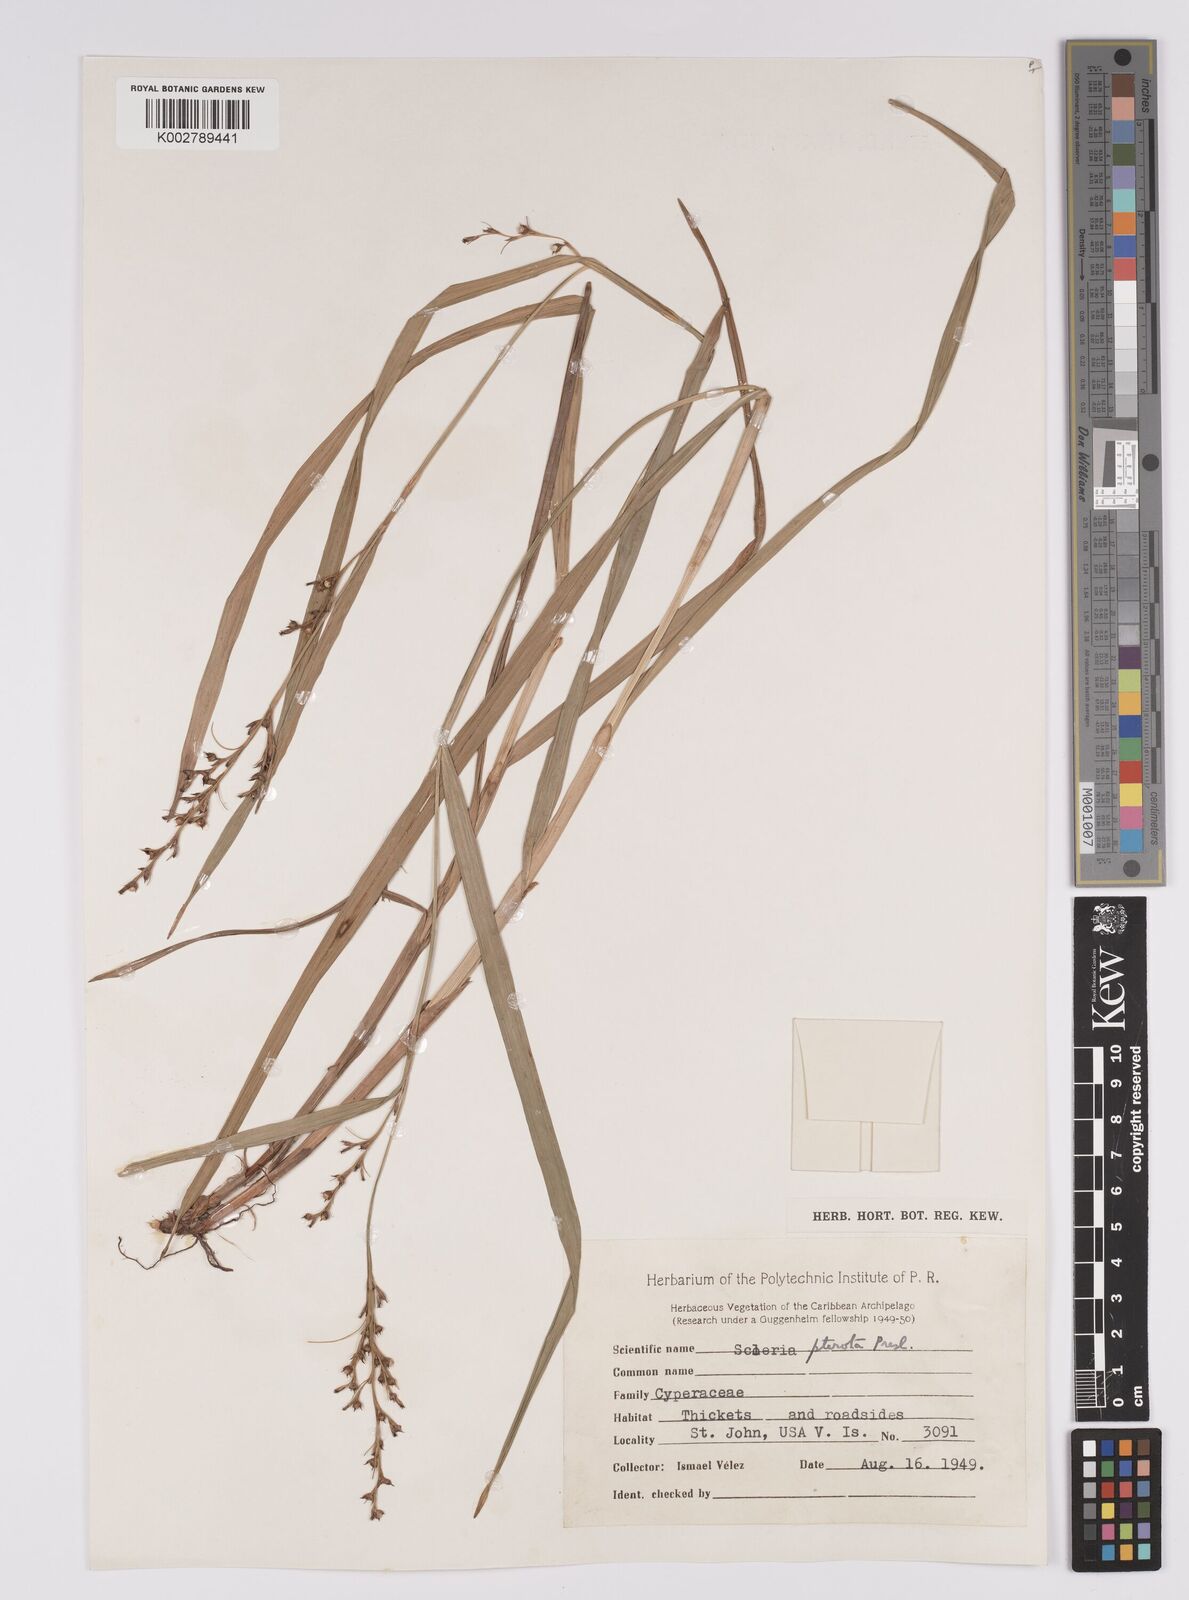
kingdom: Plantae
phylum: Tracheophyta
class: Liliopsida
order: Poales
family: Cyperaceae
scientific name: Cyperaceae
